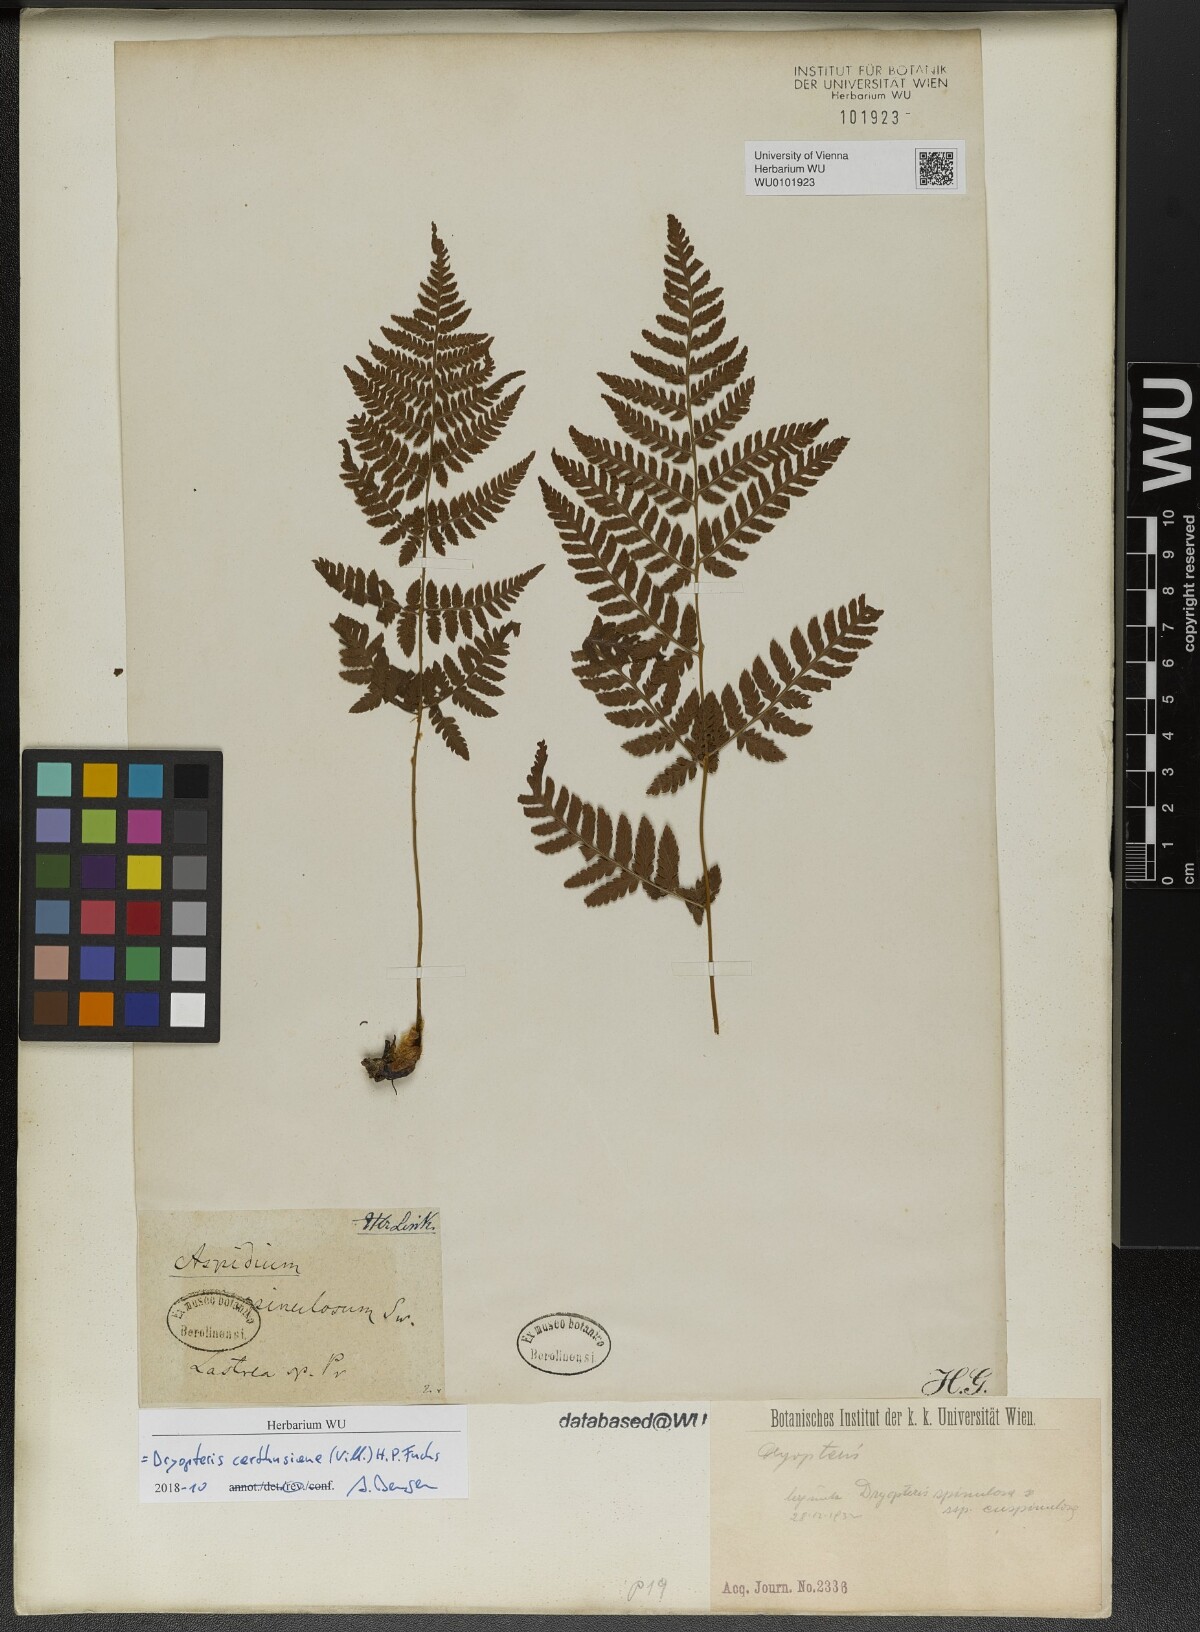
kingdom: Plantae
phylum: Tracheophyta
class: Polypodiopsida
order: Polypodiales
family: Dryopteridaceae
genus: Dryopteris
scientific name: Dryopteris carthusiana
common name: Narrow buckler-fern
